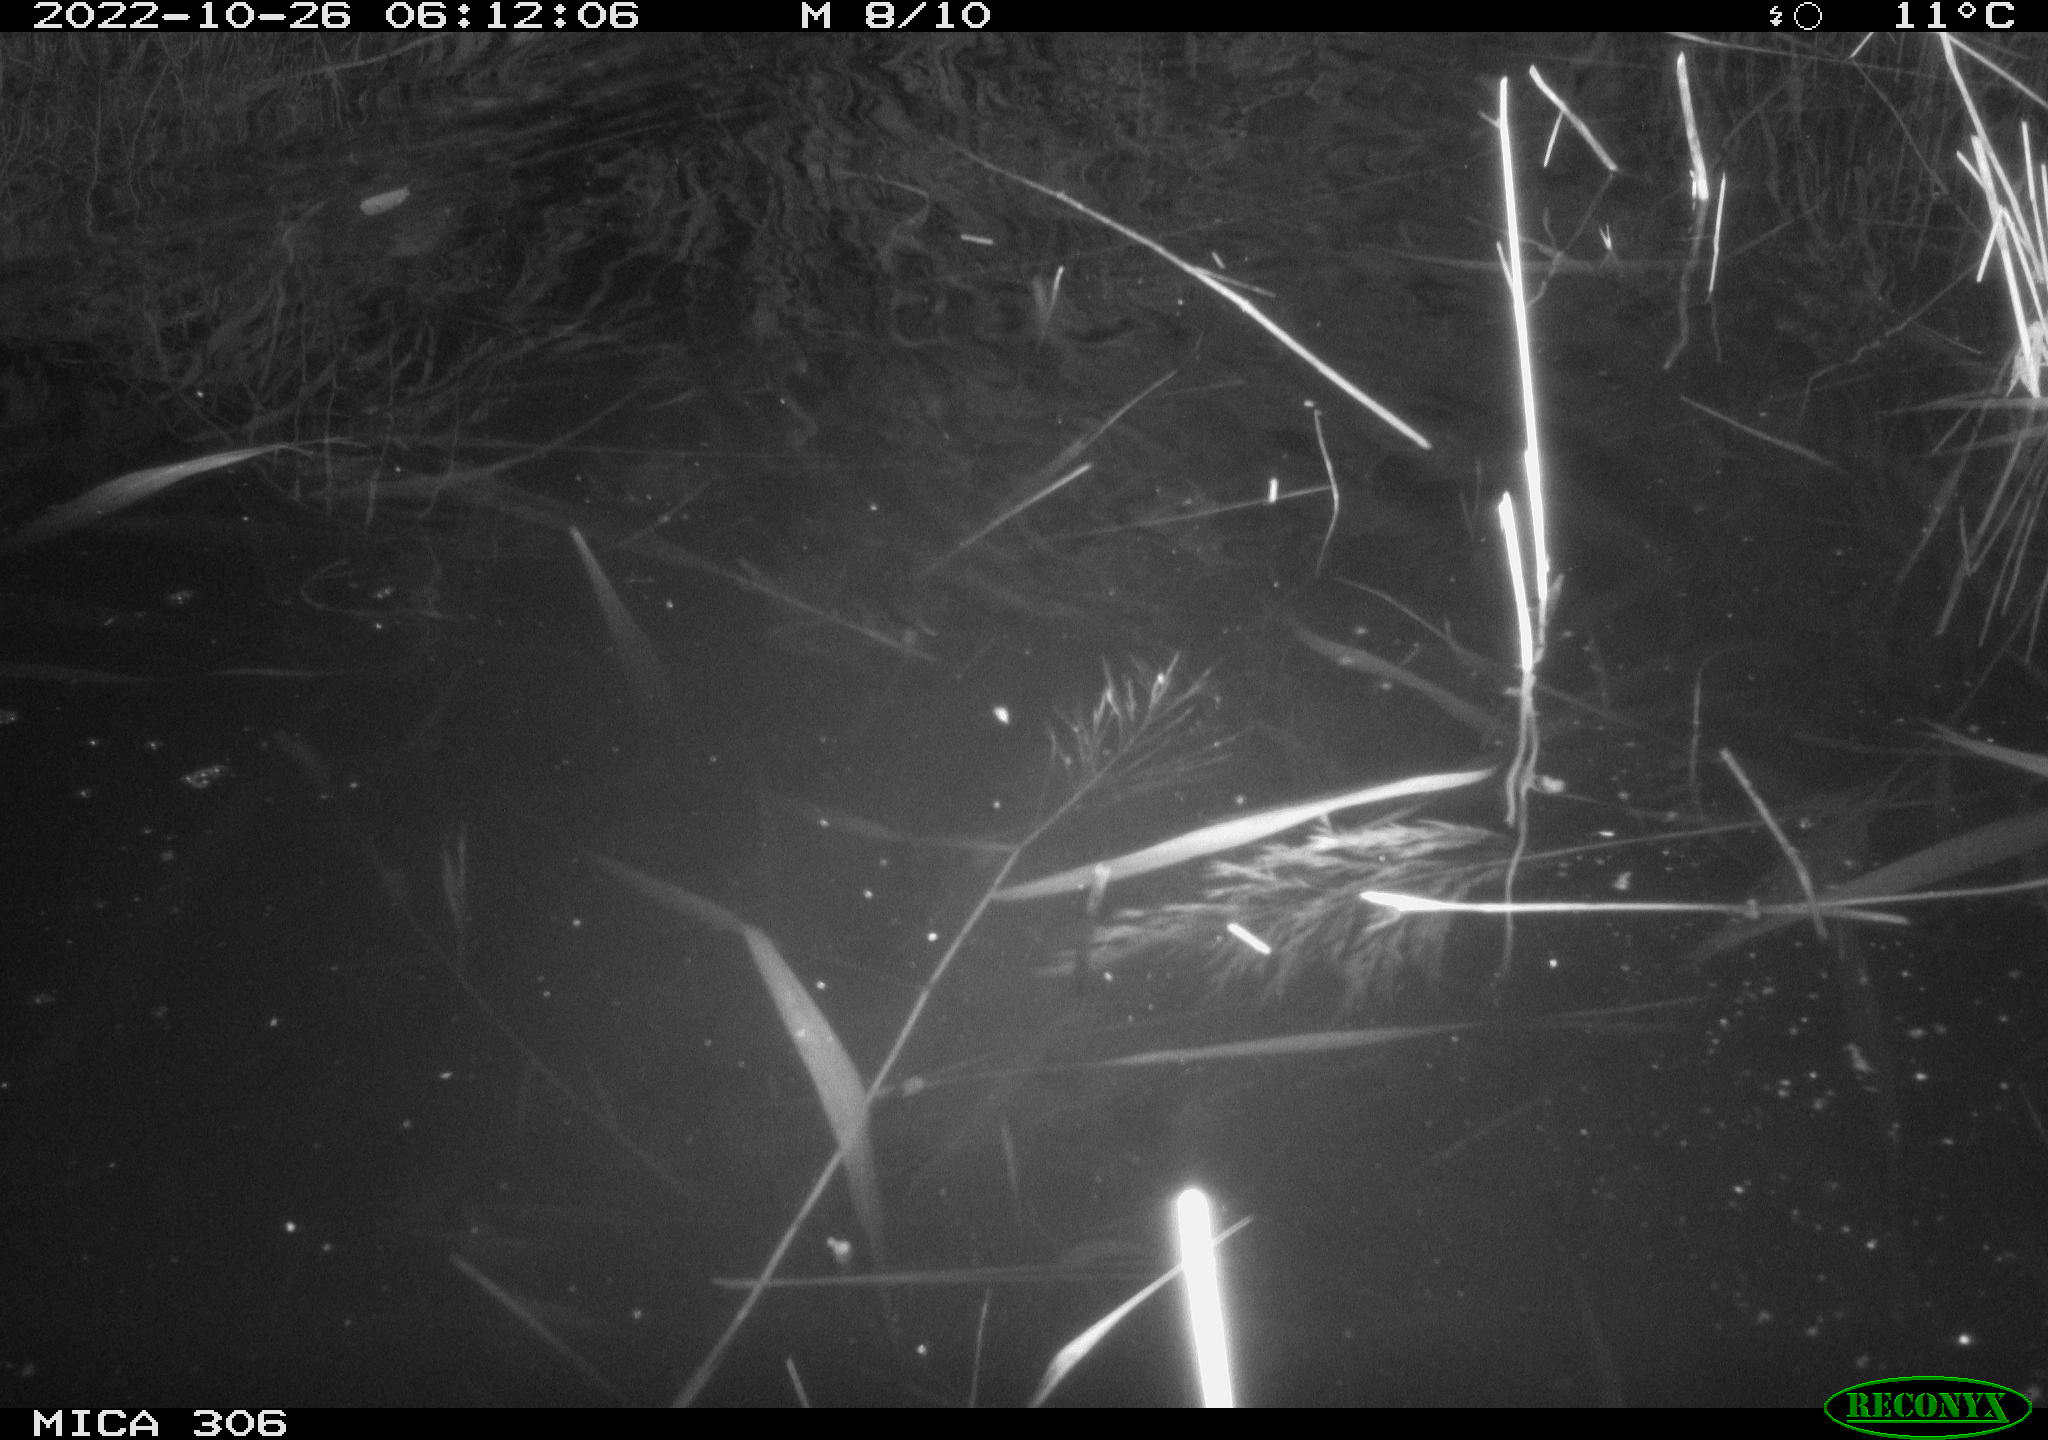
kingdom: Animalia
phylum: Chordata
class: Mammalia
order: Rodentia
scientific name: Rodentia
